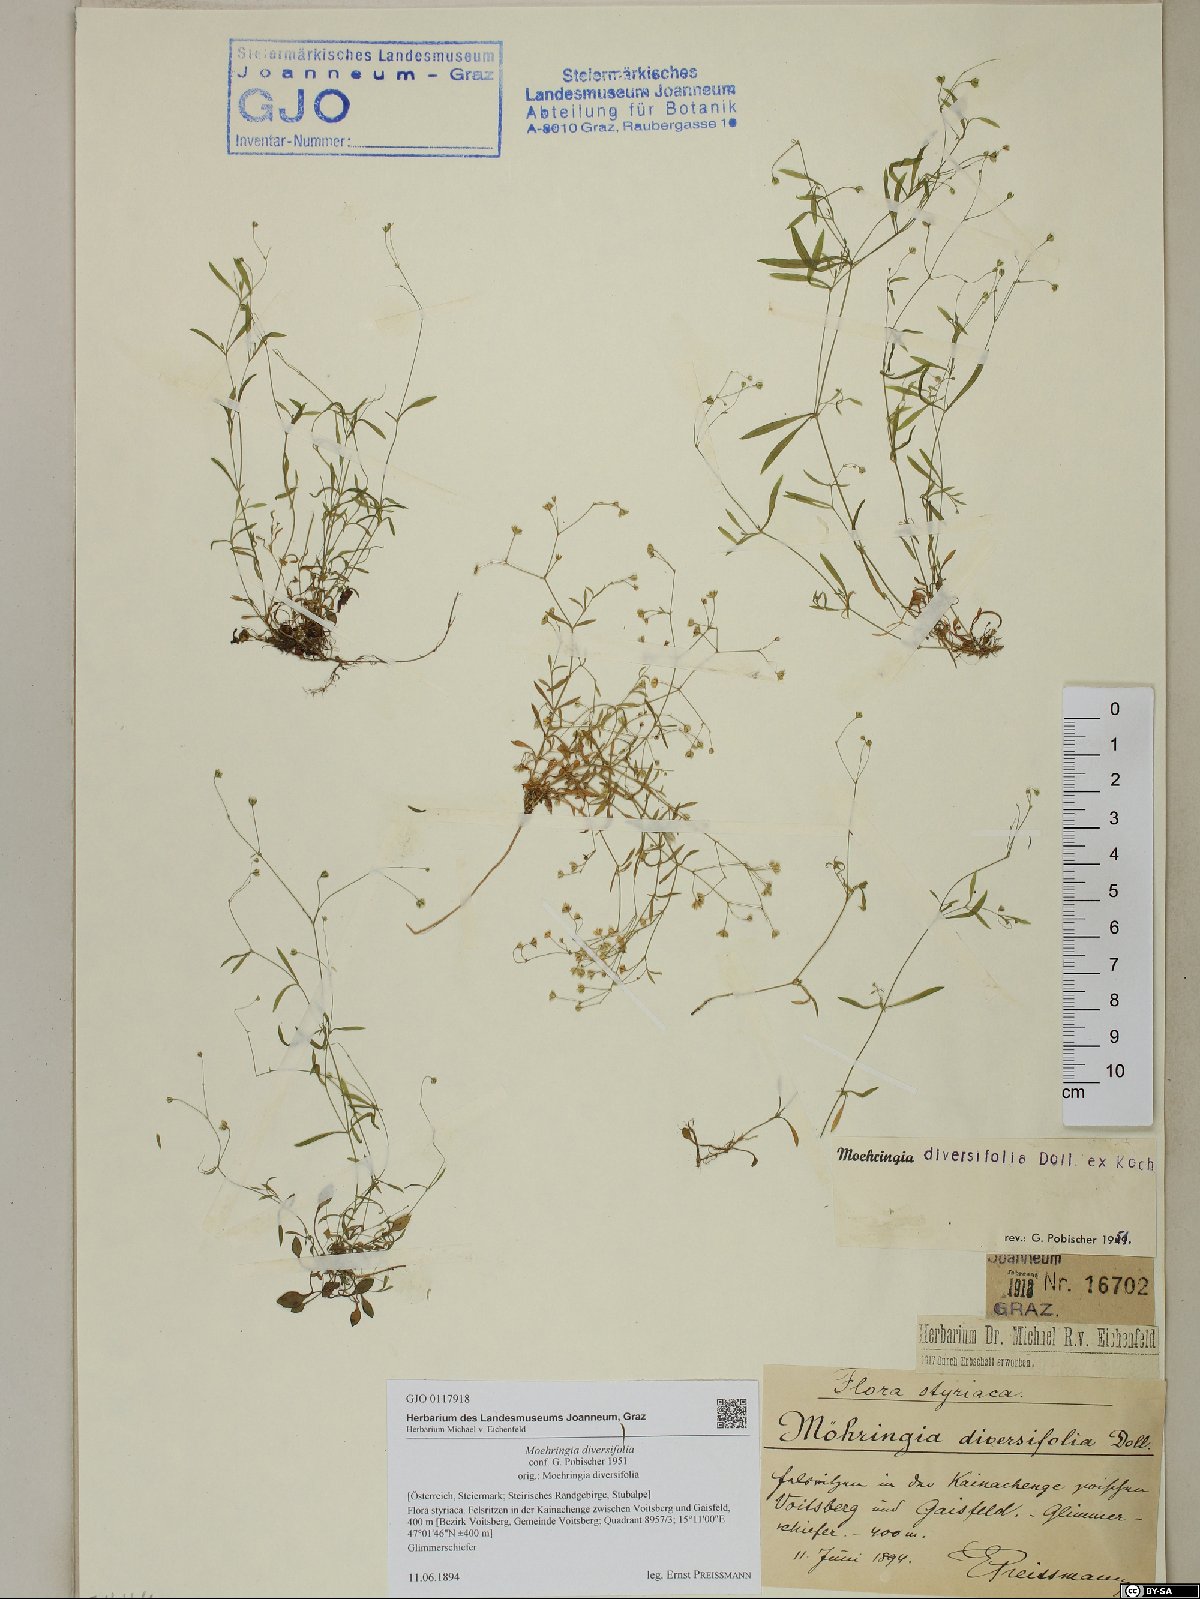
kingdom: Plantae
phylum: Tracheophyta
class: Magnoliopsida
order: Caryophyllales
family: Caryophyllaceae
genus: Moehringia
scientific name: Moehringia diversifolia
